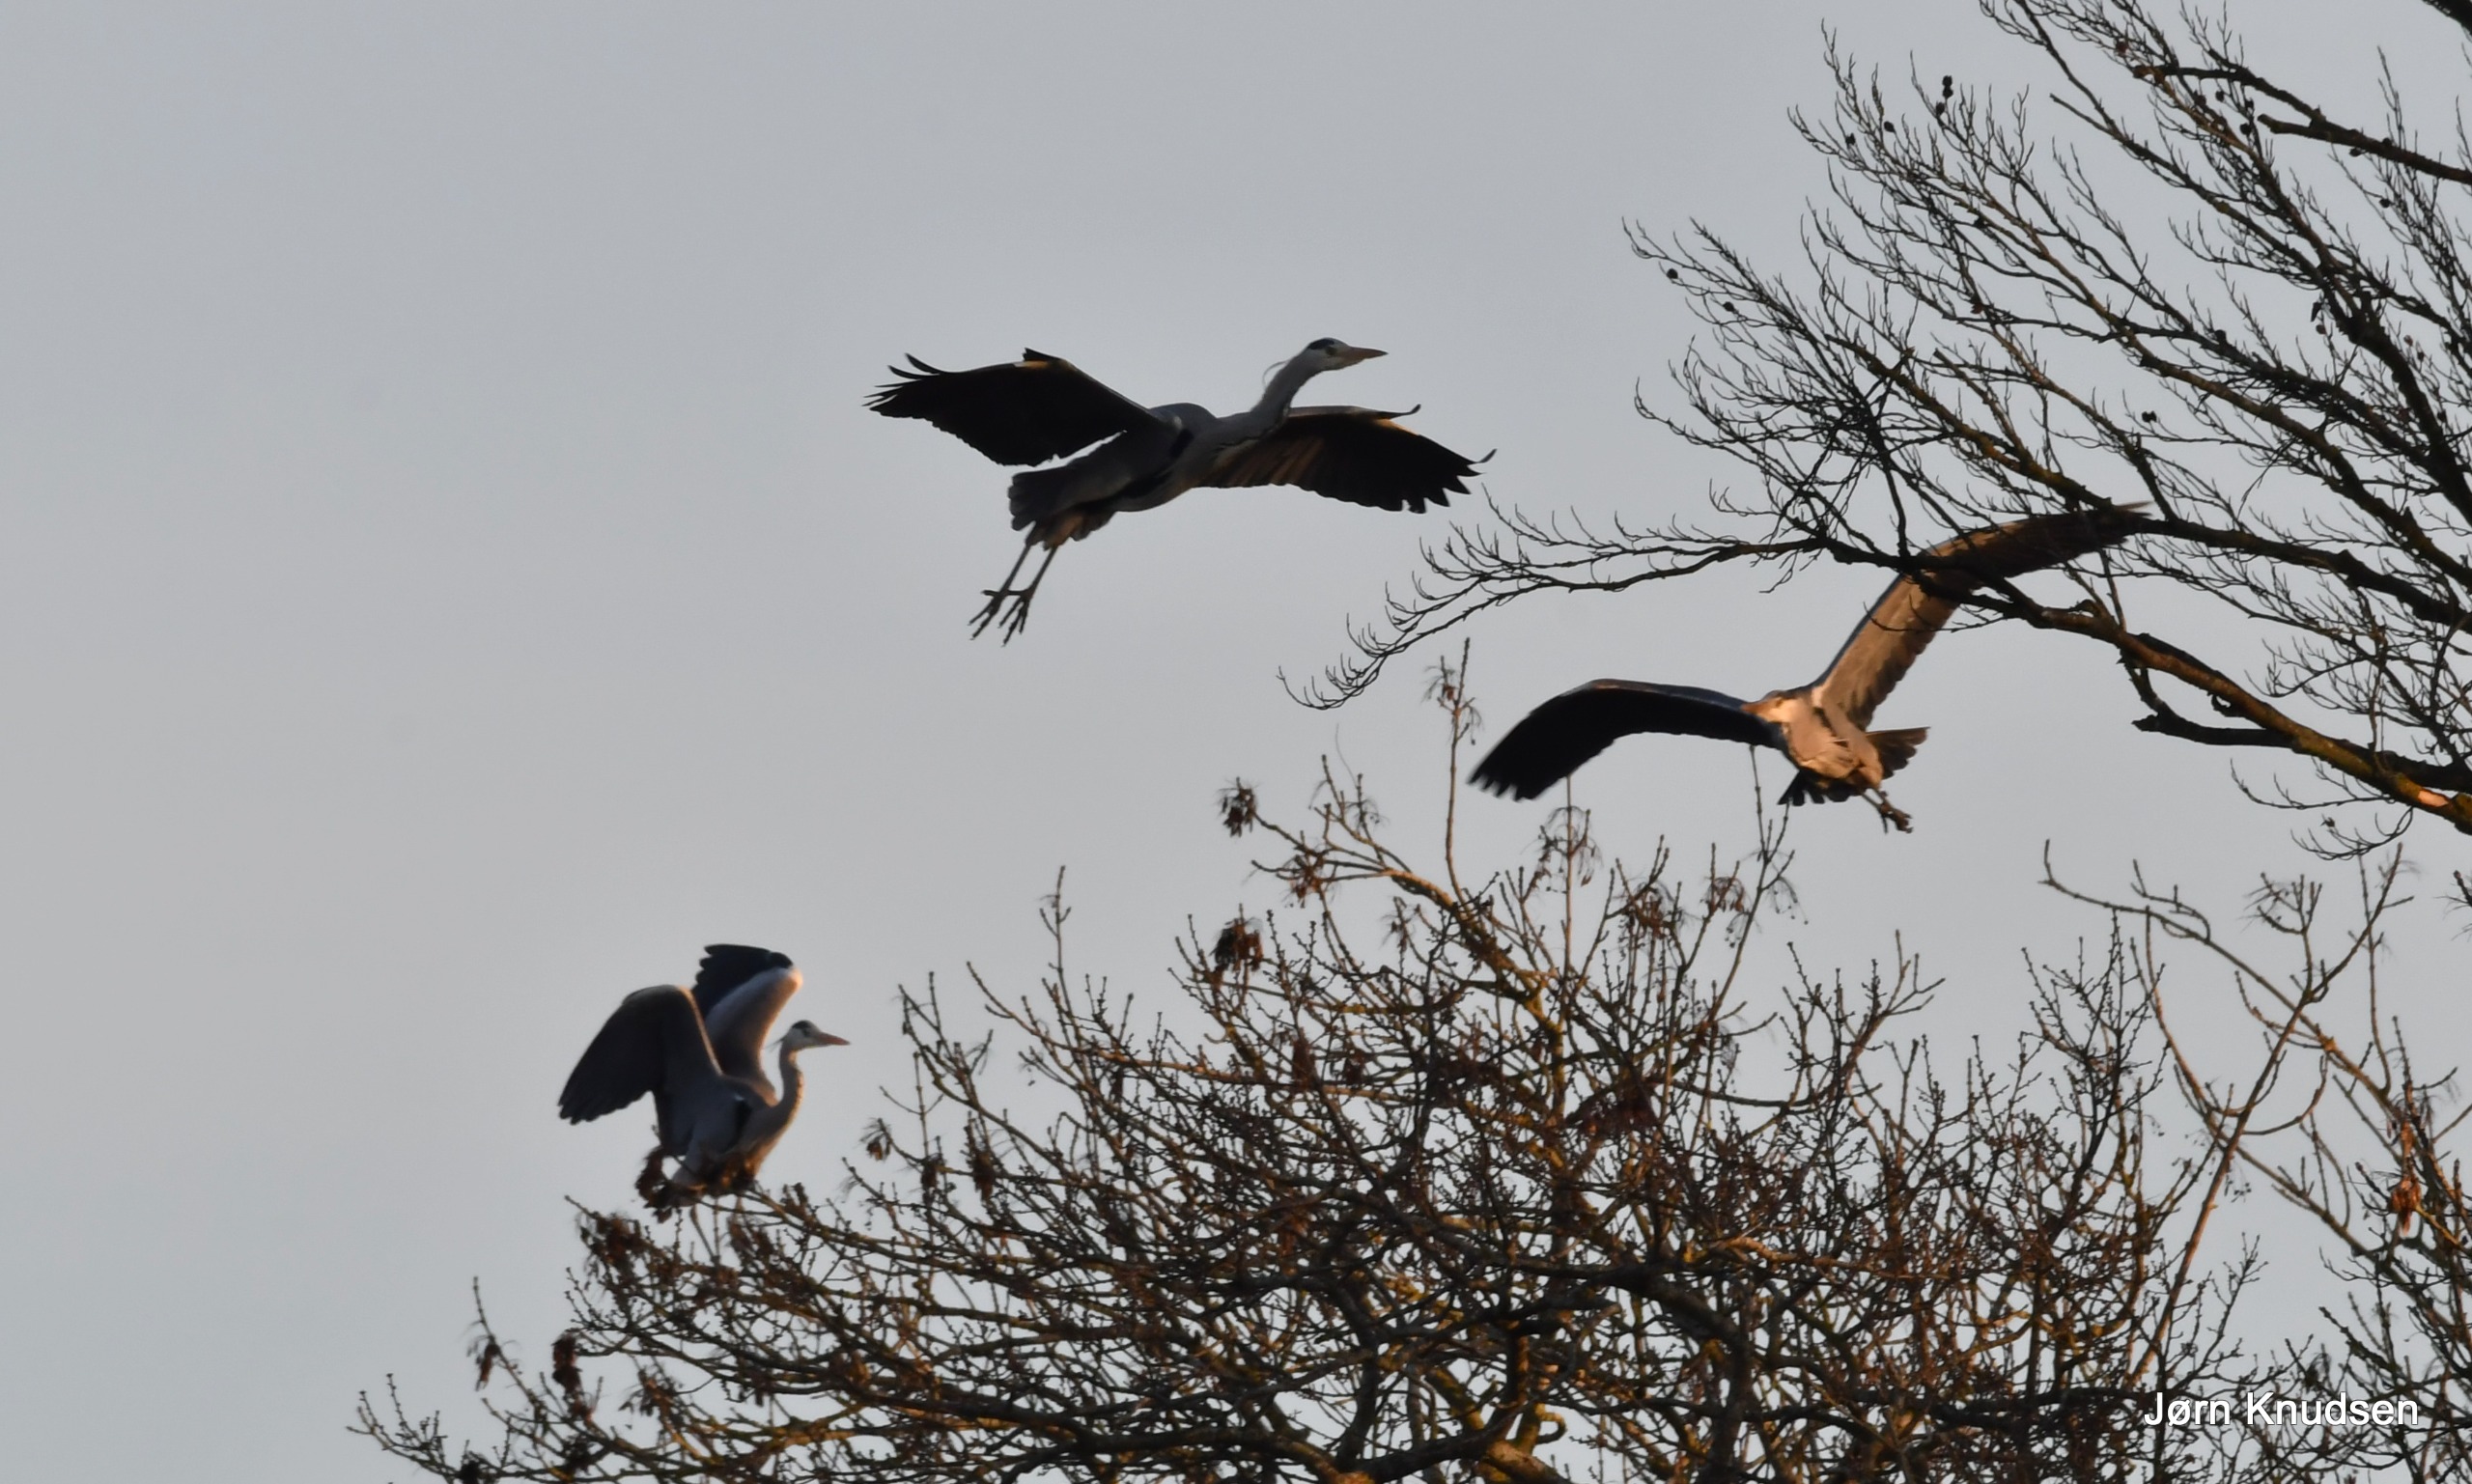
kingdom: Animalia
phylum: Chordata
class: Aves
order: Pelecaniformes
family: Ardeidae
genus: Ardea
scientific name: Ardea cinerea
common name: Fiskehejre
